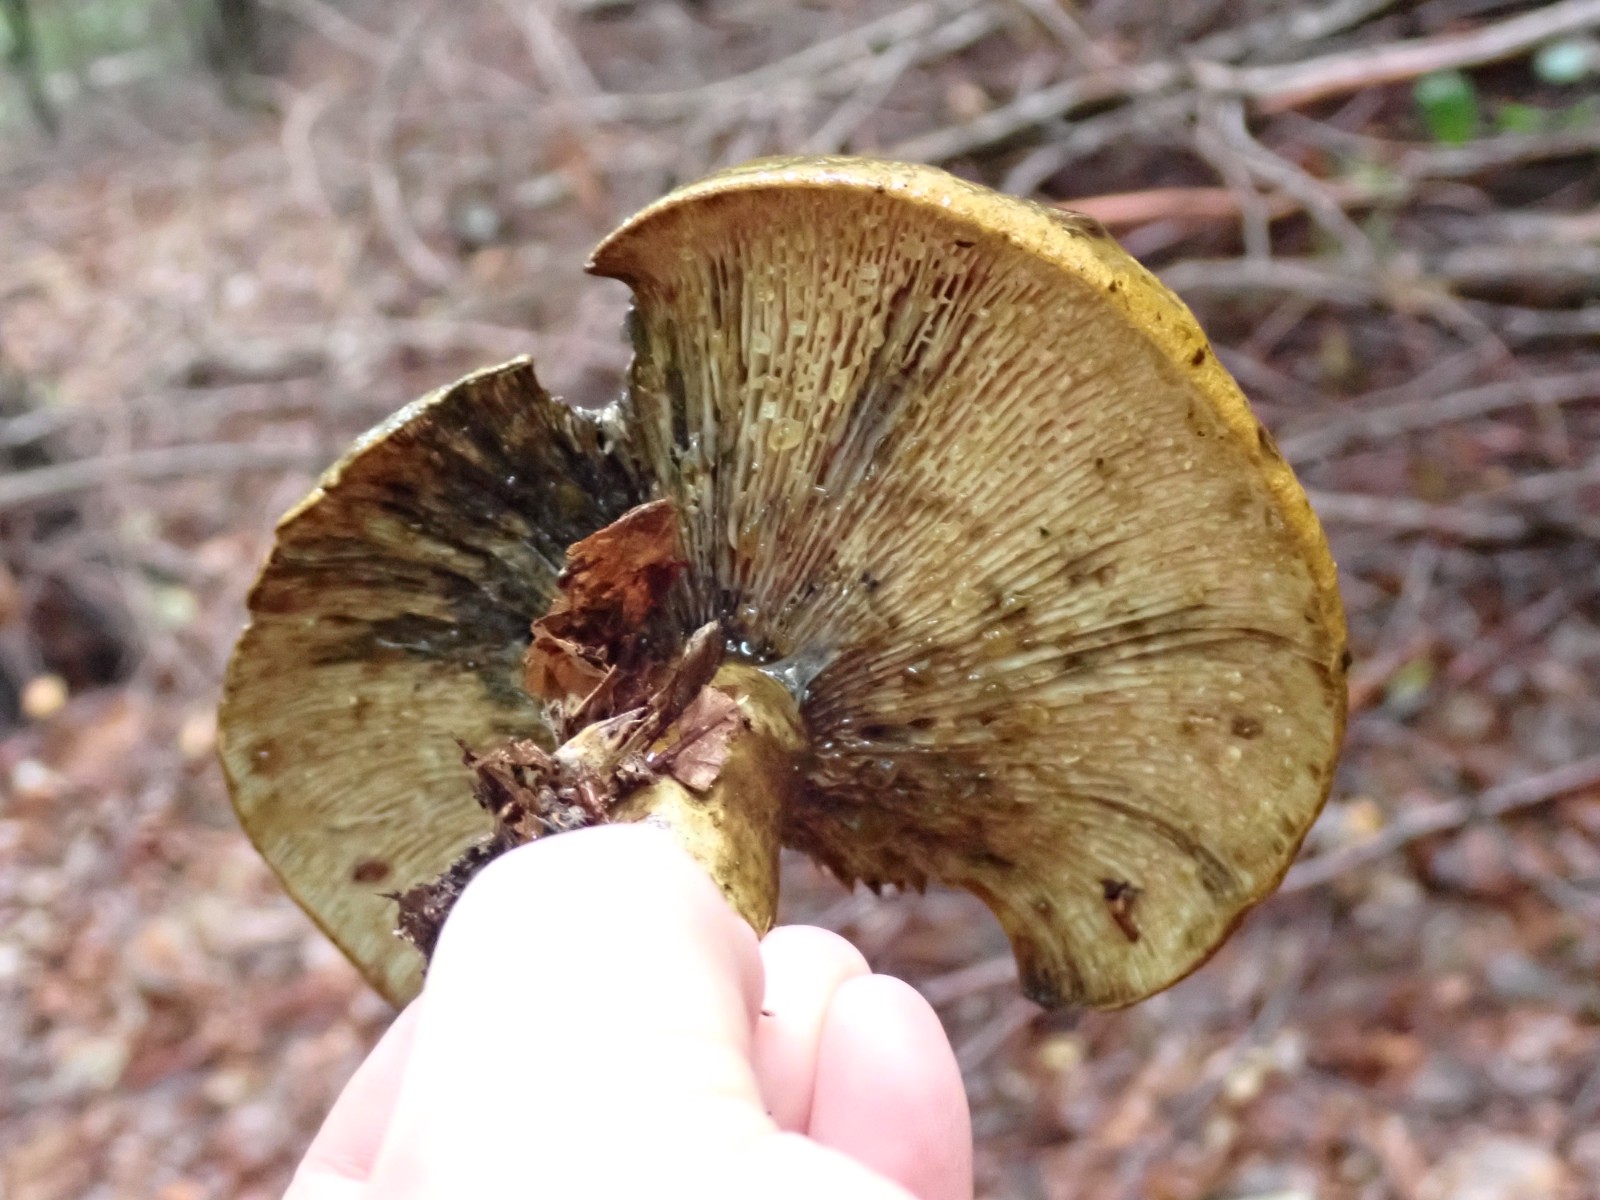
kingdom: Fungi
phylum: Basidiomycota
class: Agaricomycetes
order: Russulales
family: Russulaceae
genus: Lactarius
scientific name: Lactarius necator
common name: manddraber-mælkehat
